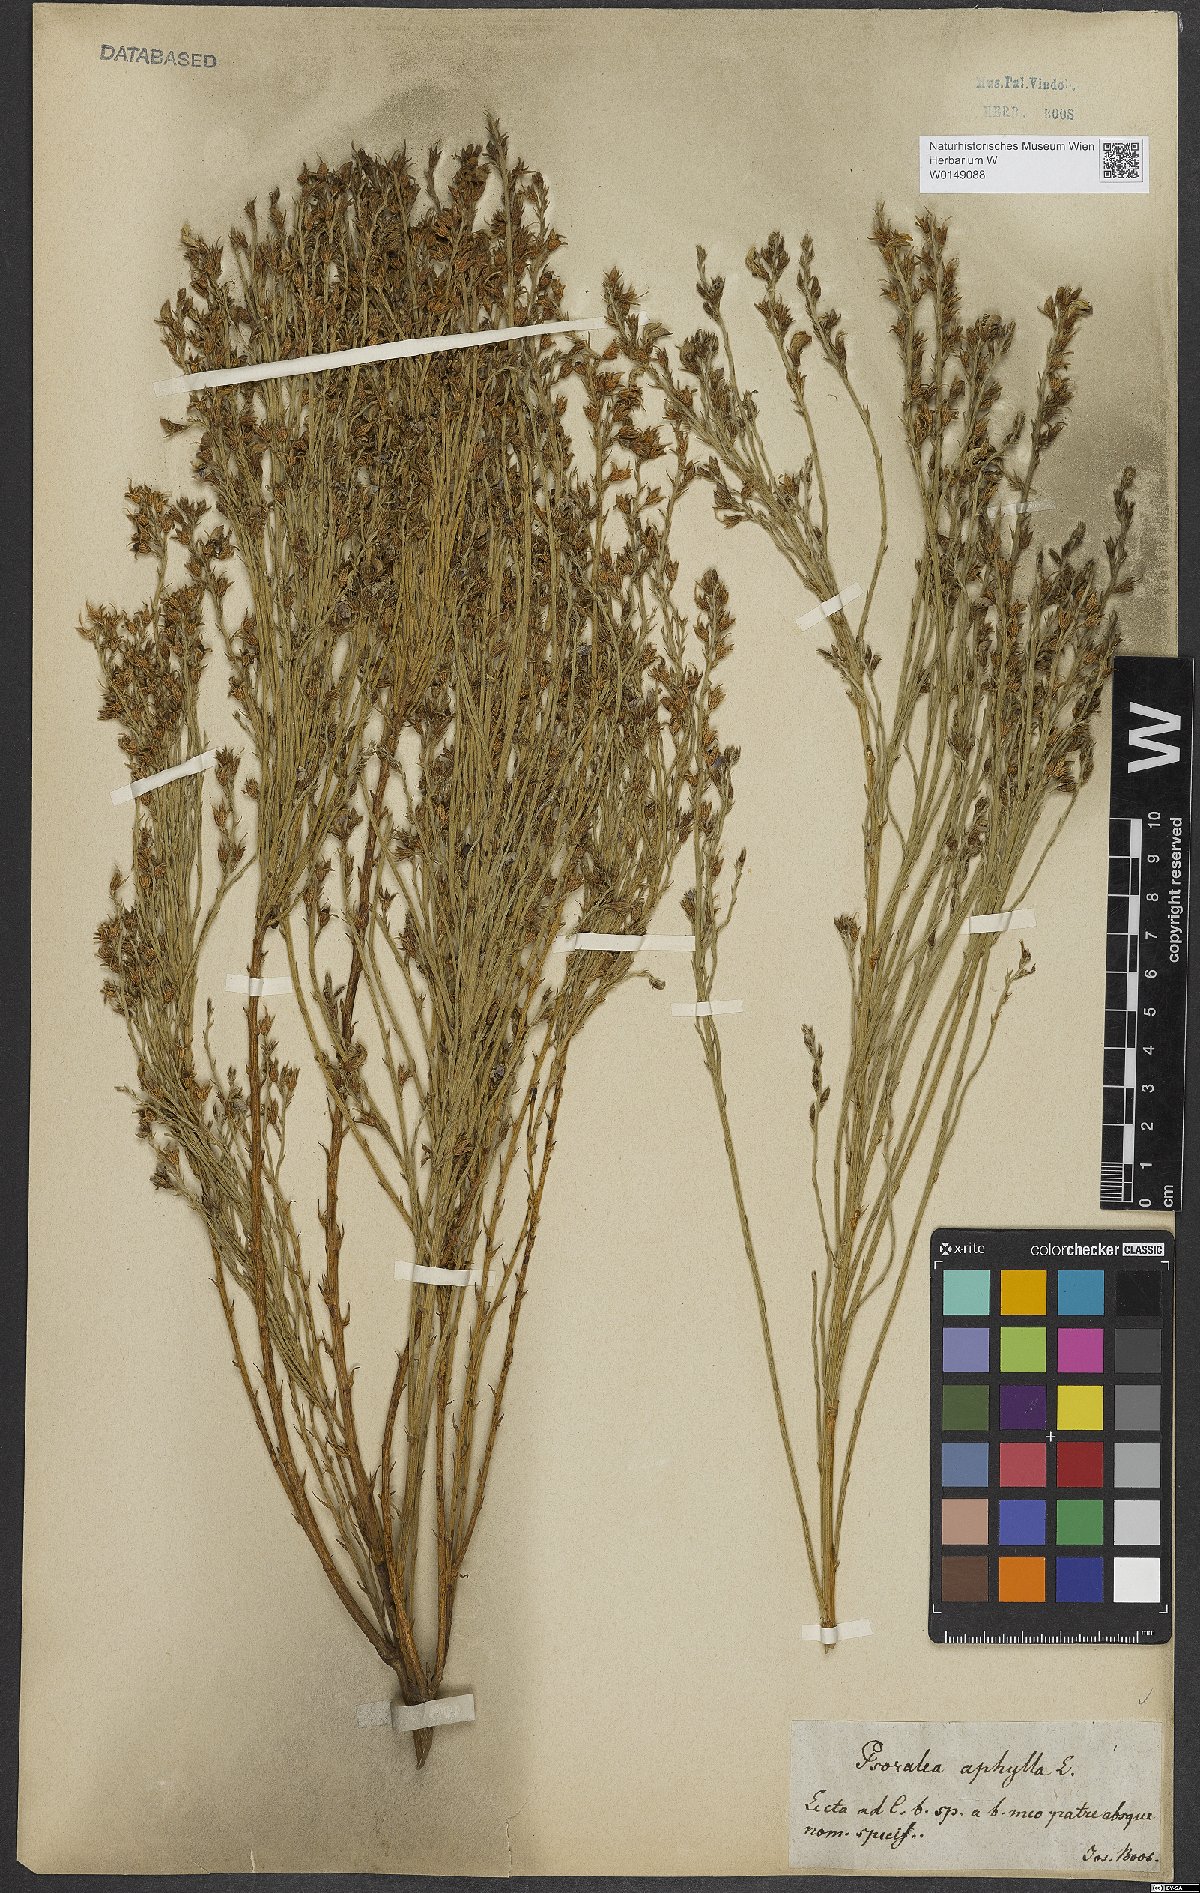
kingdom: Plantae
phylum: Tracheophyta
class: Magnoliopsida
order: Fabales
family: Fabaceae
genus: Psoralea
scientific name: Psoralea aphylla
